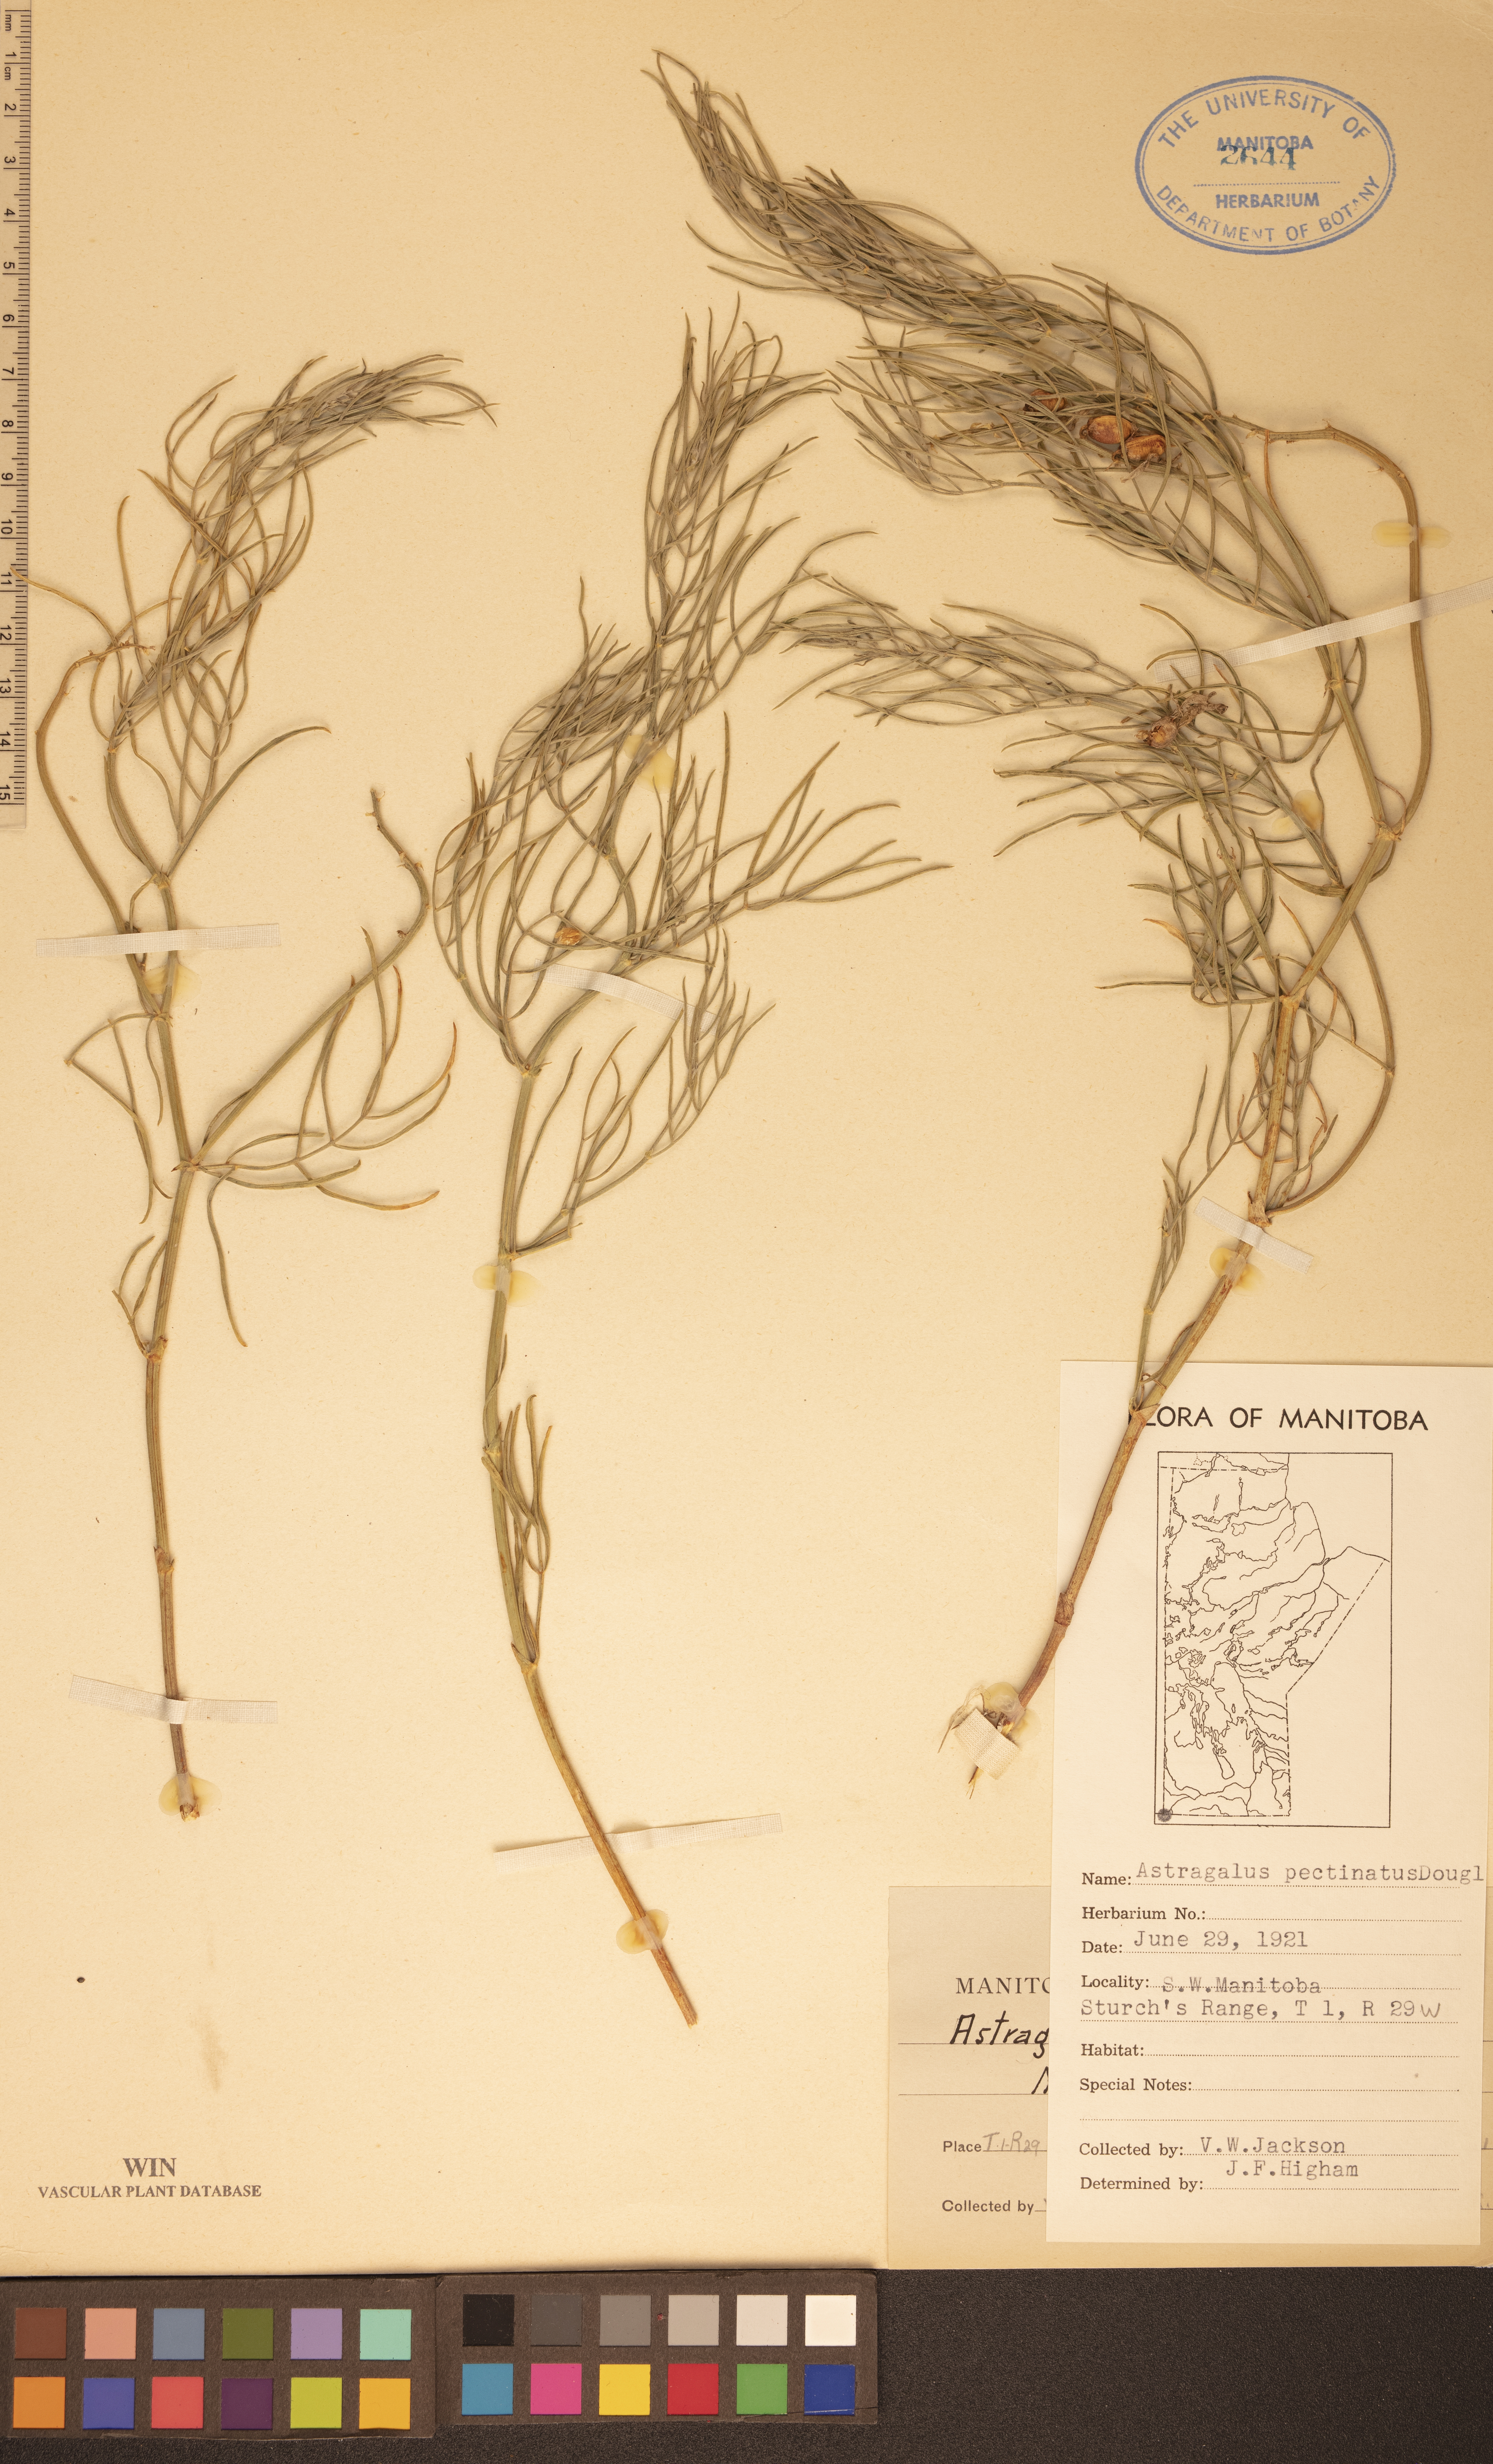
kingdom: Plantae
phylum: Tracheophyta
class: Magnoliopsida
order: Fabales
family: Fabaceae
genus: Astragalus
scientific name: Astragalus pectinatus
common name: Tine-leaf milk-vetch
